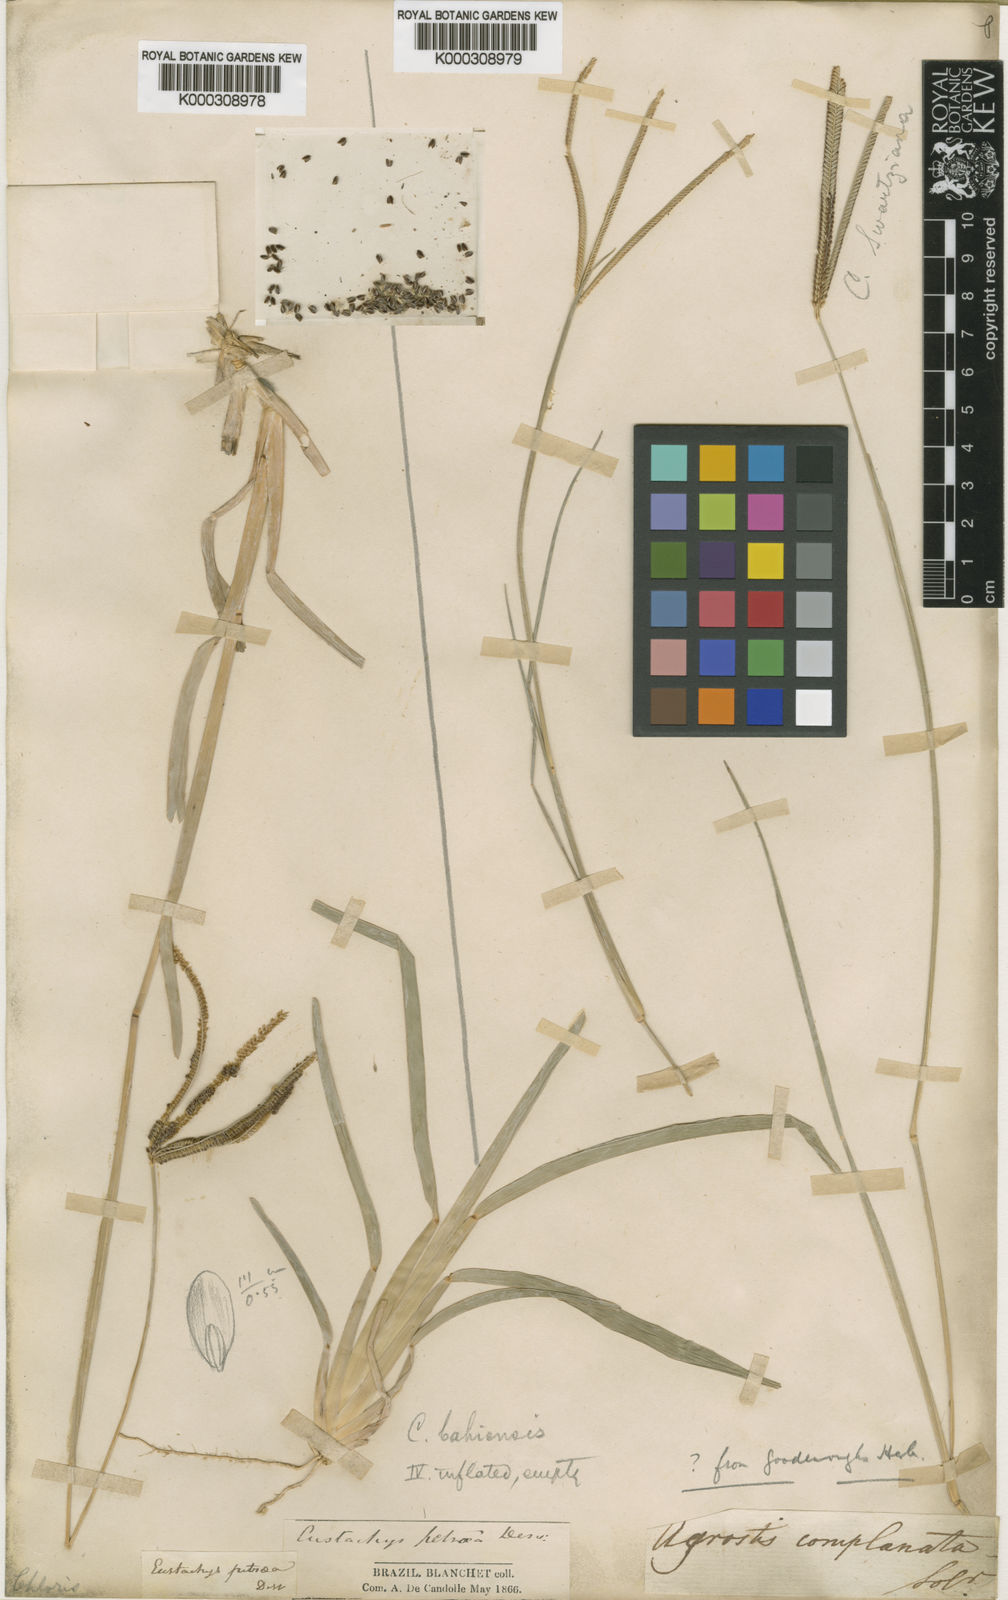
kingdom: Plantae
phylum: Tracheophyta
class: Liliopsida
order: Poales
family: Poaceae
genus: Eustachys
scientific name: Eustachys petraea
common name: Pinewoods fingergrass
